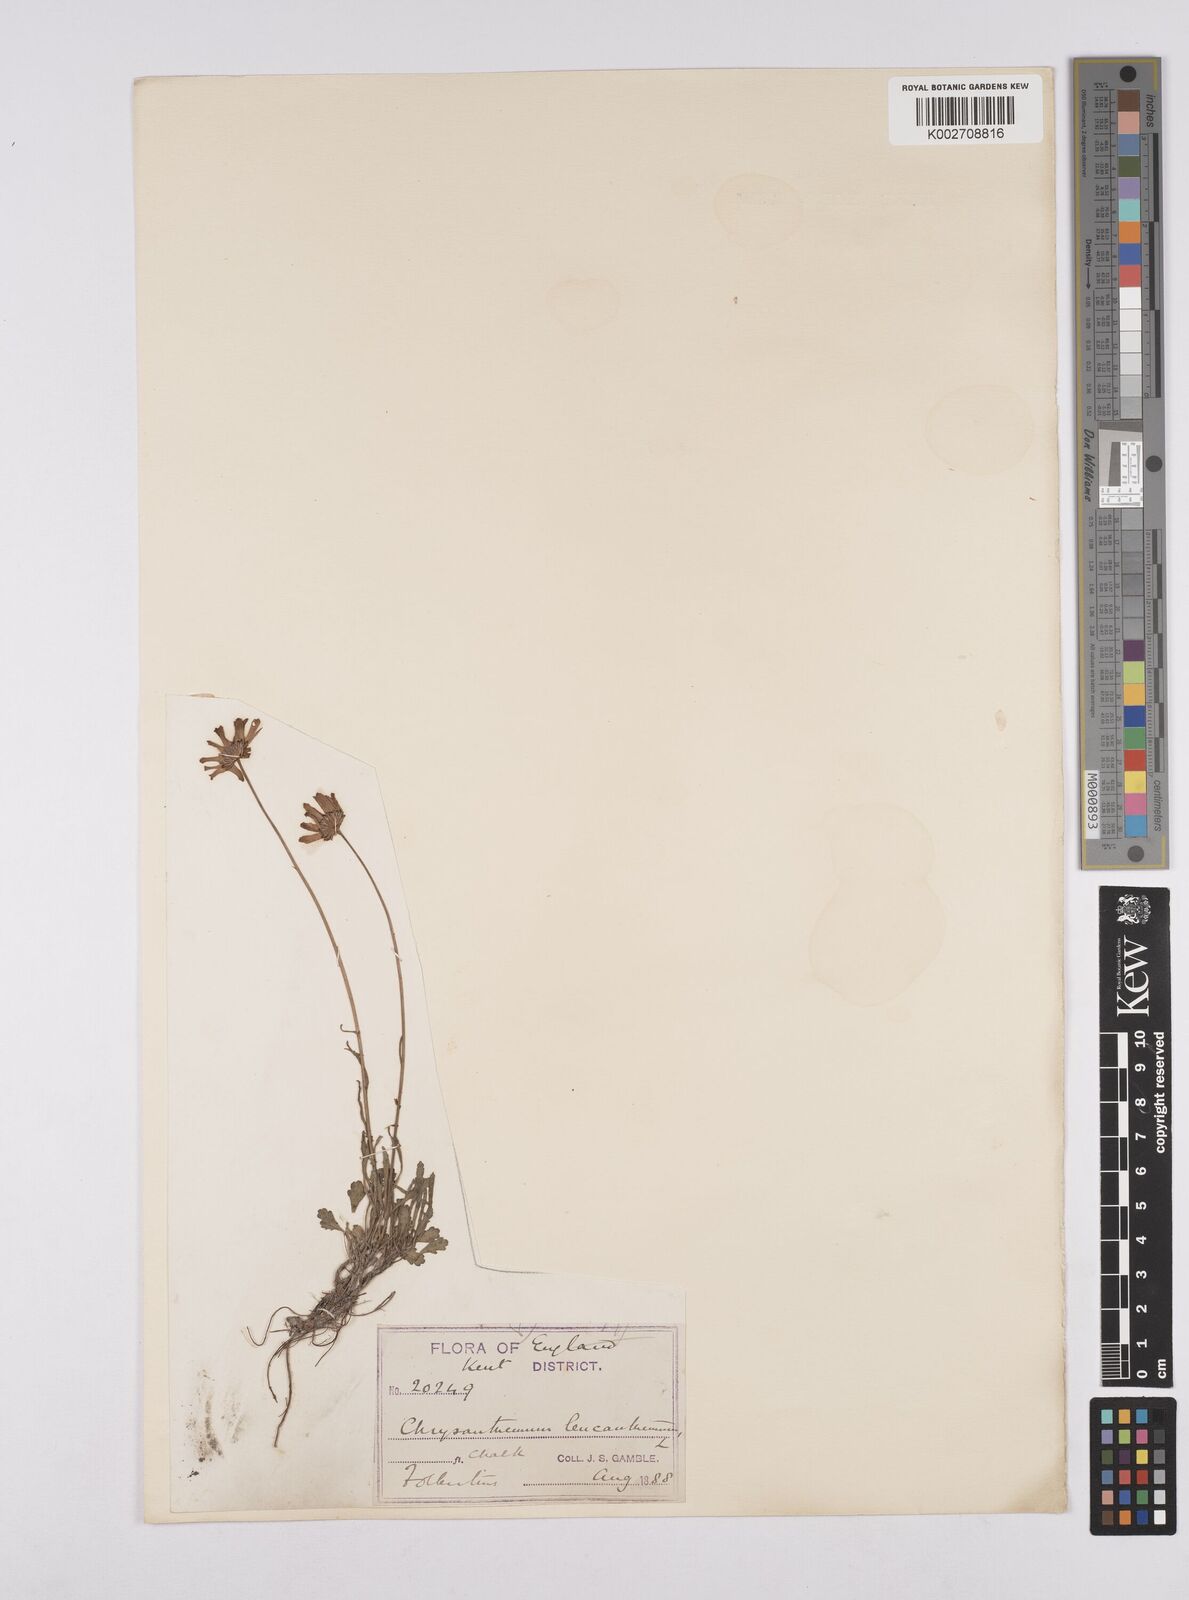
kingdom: Plantae
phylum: Tracheophyta
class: Magnoliopsida
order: Asterales
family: Asteraceae
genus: Leucanthemum
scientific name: Leucanthemum vulgare
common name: Oxeye daisy
